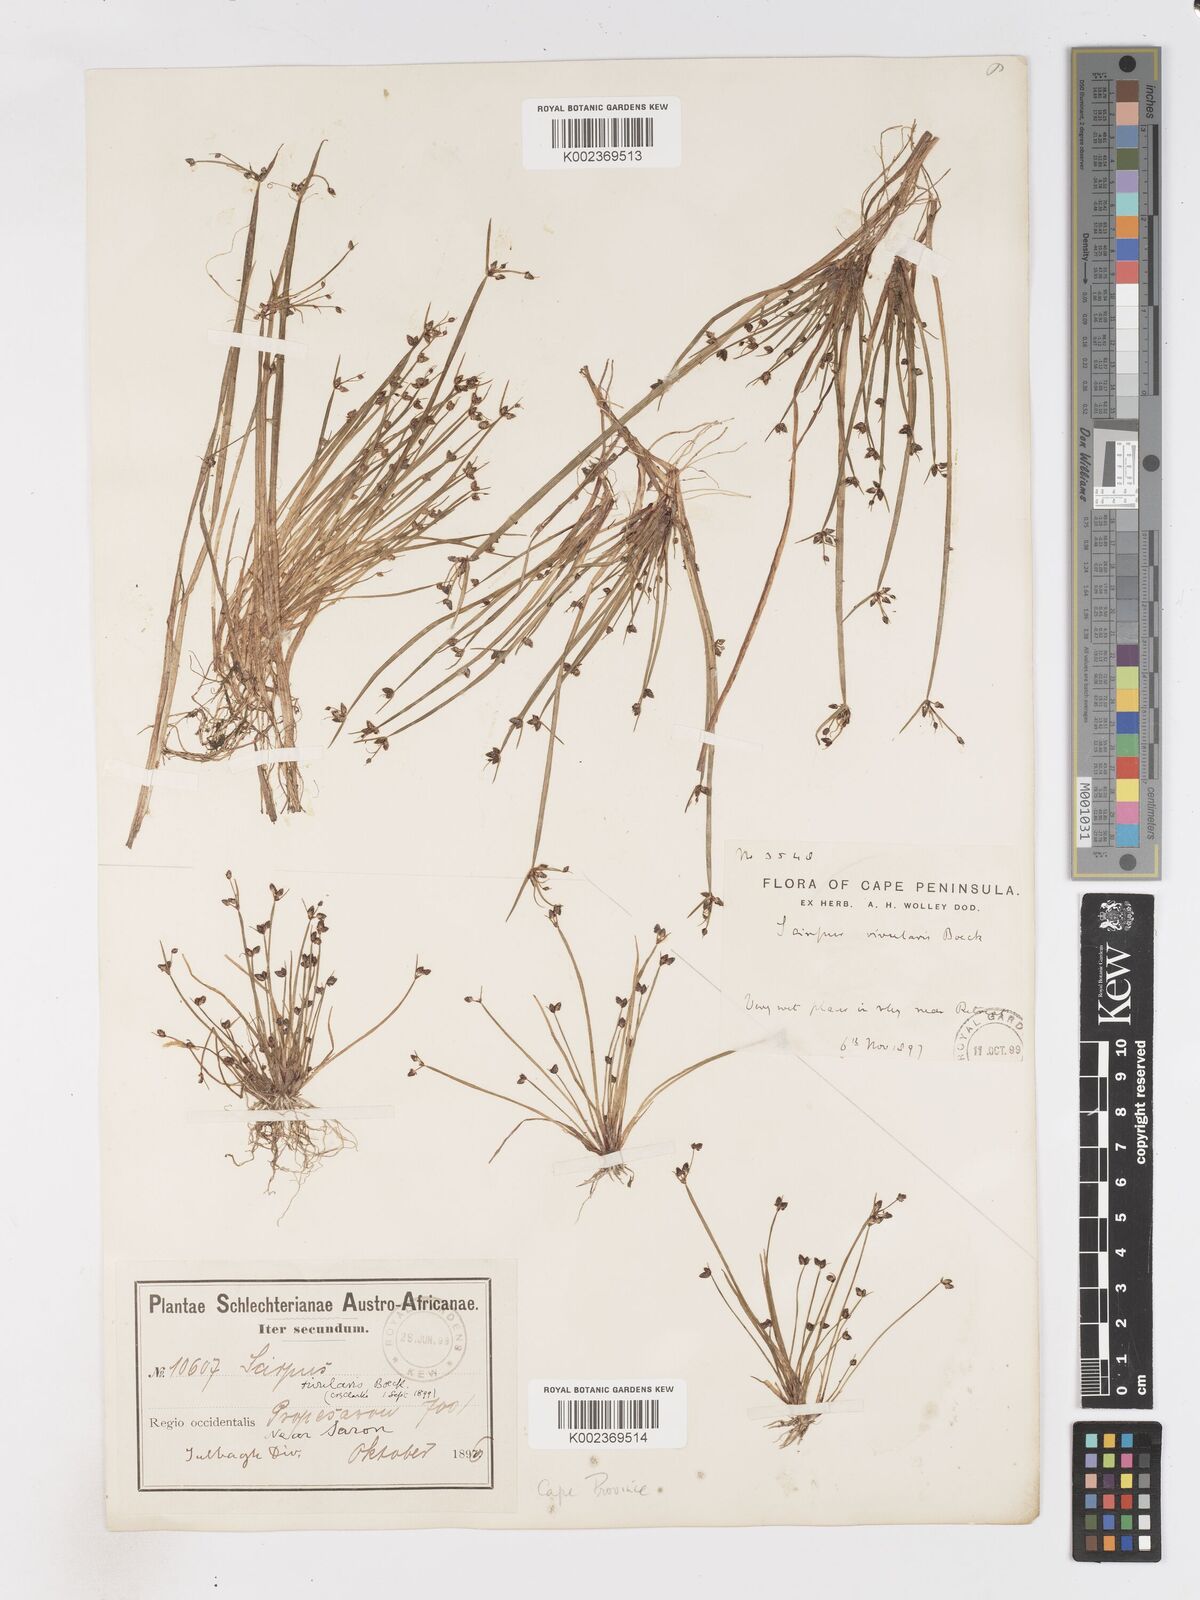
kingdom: Plantae
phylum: Tracheophyta
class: Liliopsida
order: Poales
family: Cyperaceae
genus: Isolepis
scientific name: Isolepis natans
